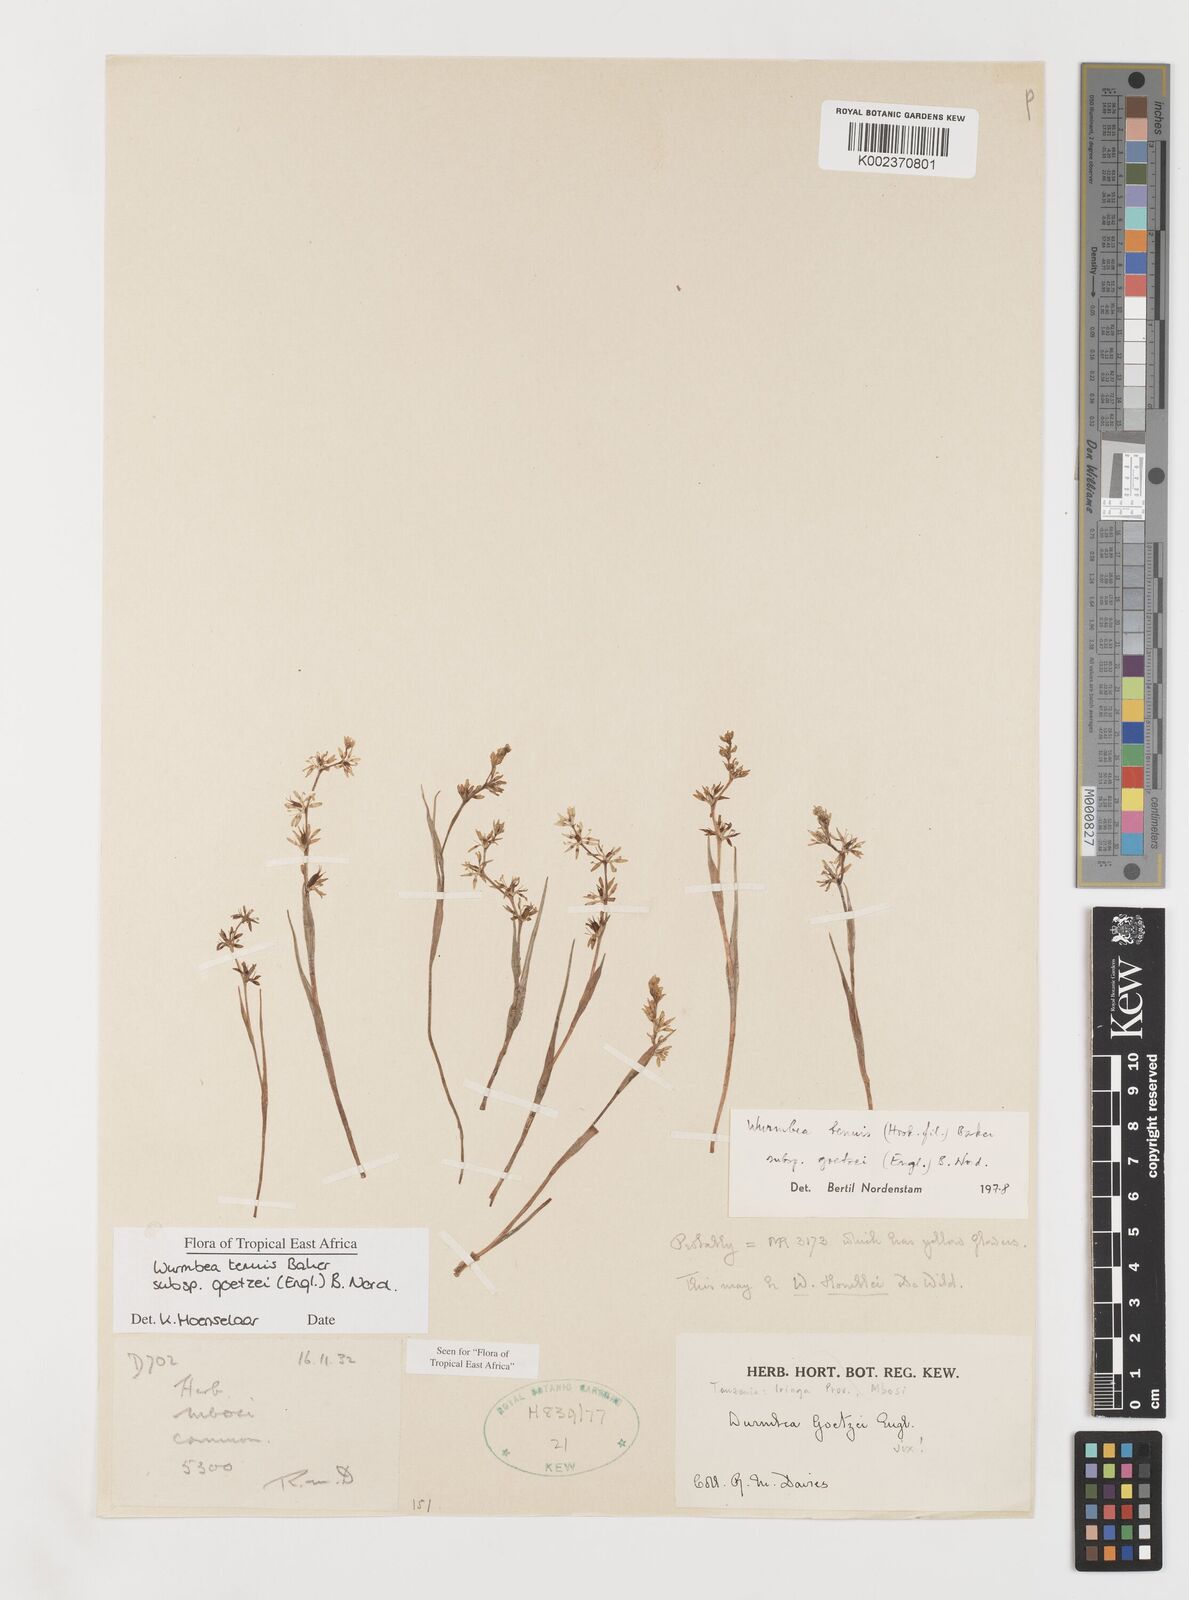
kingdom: Plantae
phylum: Tracheophyta
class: Liliopsida
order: Liliales
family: Colchicaceae
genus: Wurmbea
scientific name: Wurmbea tenuis
